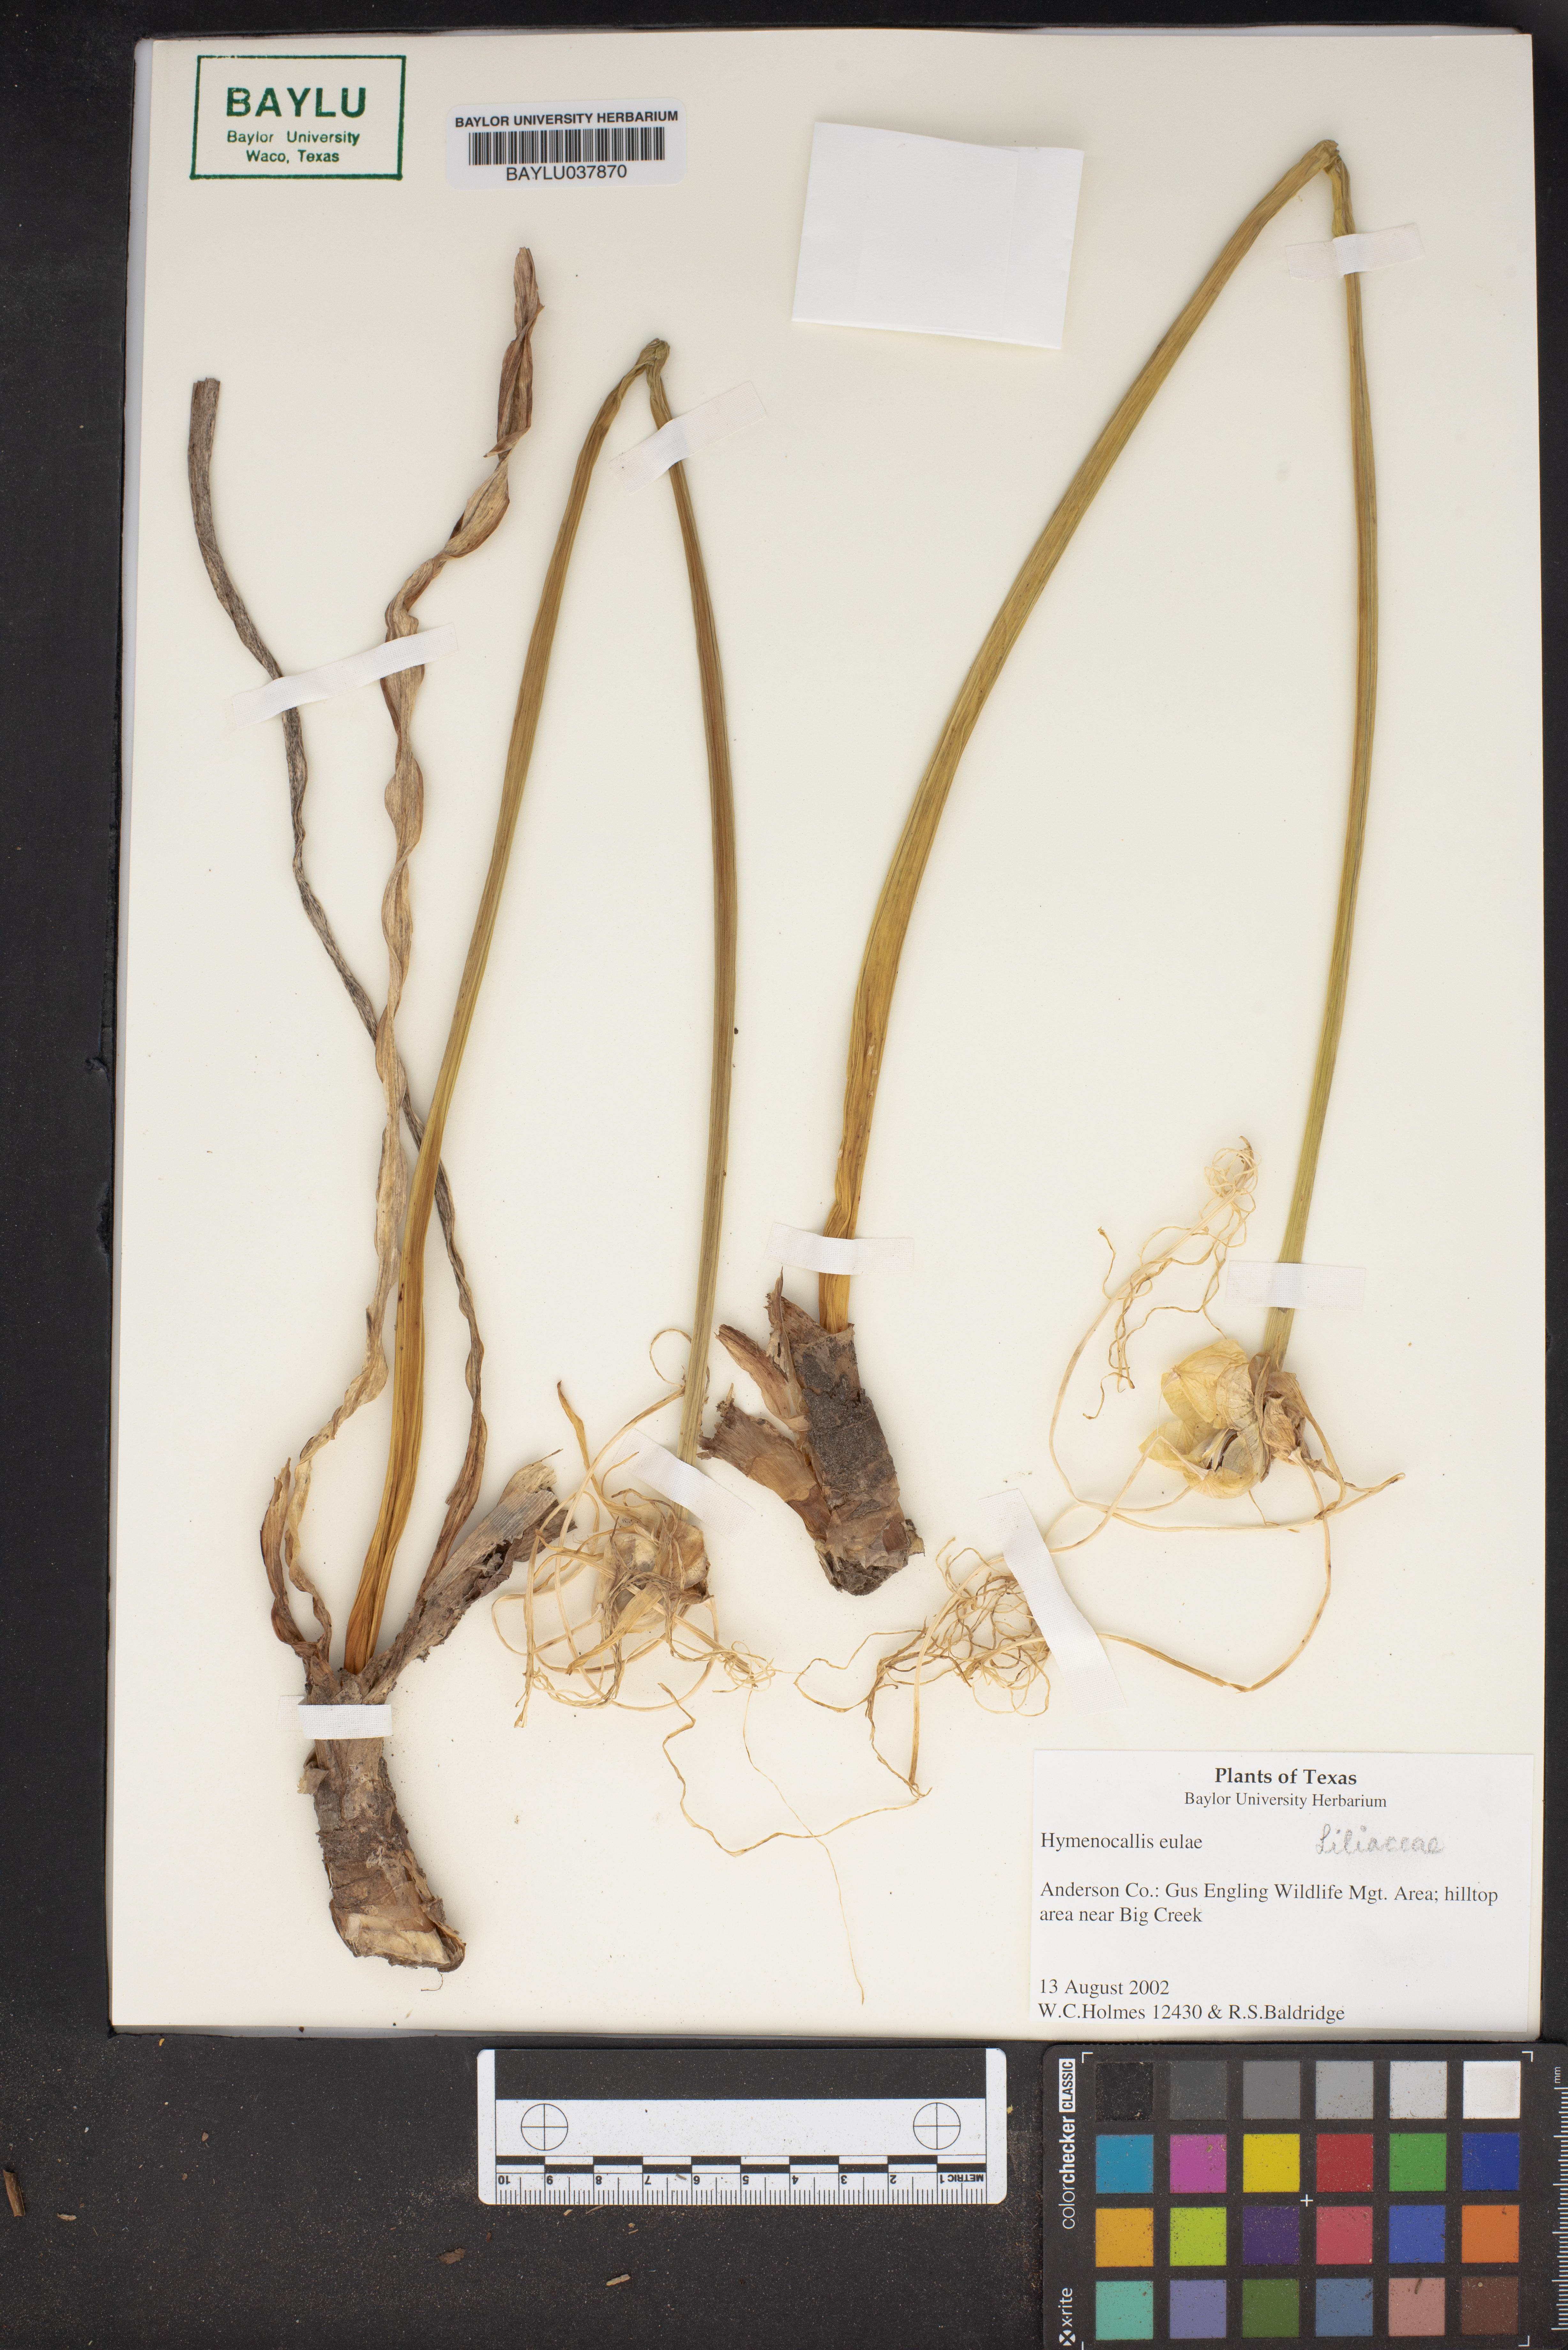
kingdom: Plantae
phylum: Tracheophyta
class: Liliopsida
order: Asparagales
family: Amaryllidaceae
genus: Hymenocallis
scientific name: Hymenocallis occidentalis
